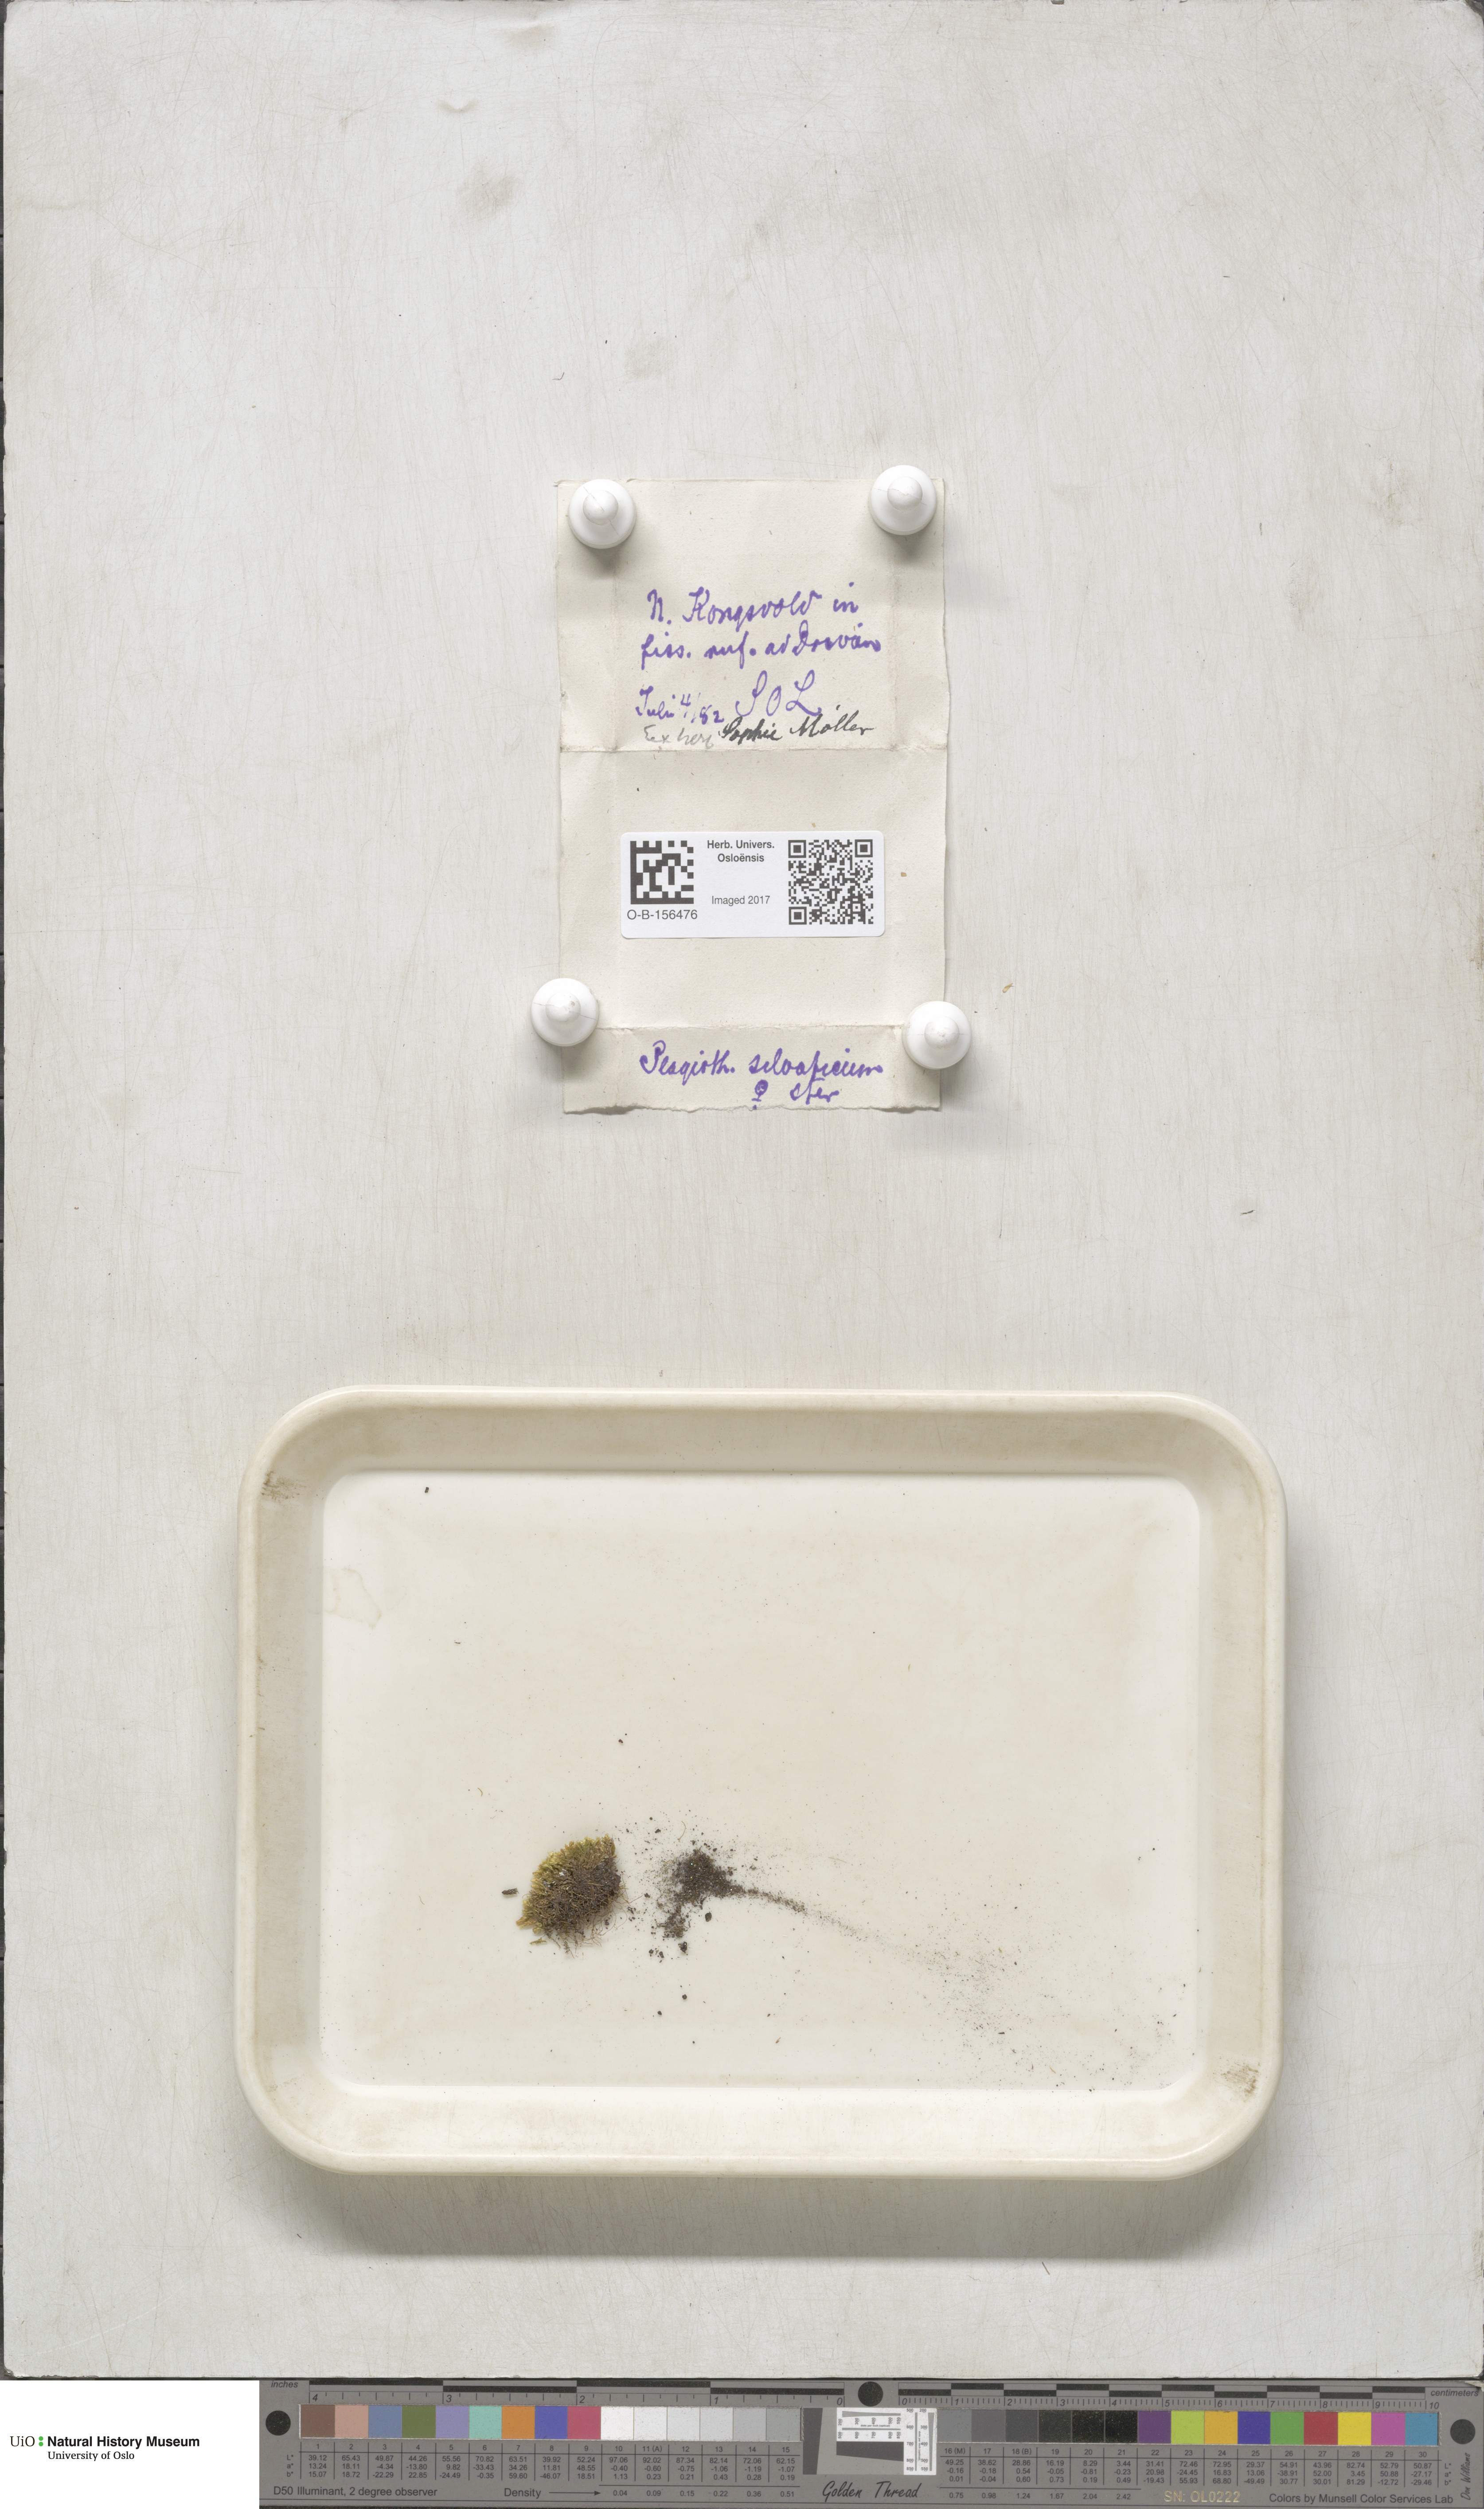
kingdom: Plantae
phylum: Bryophyta
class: Bryopsida
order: Hypnales
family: Plagiotheciaceae
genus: Plagiothecium
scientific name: Plagiothecium nemorale
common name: Woodsy silk-moss
